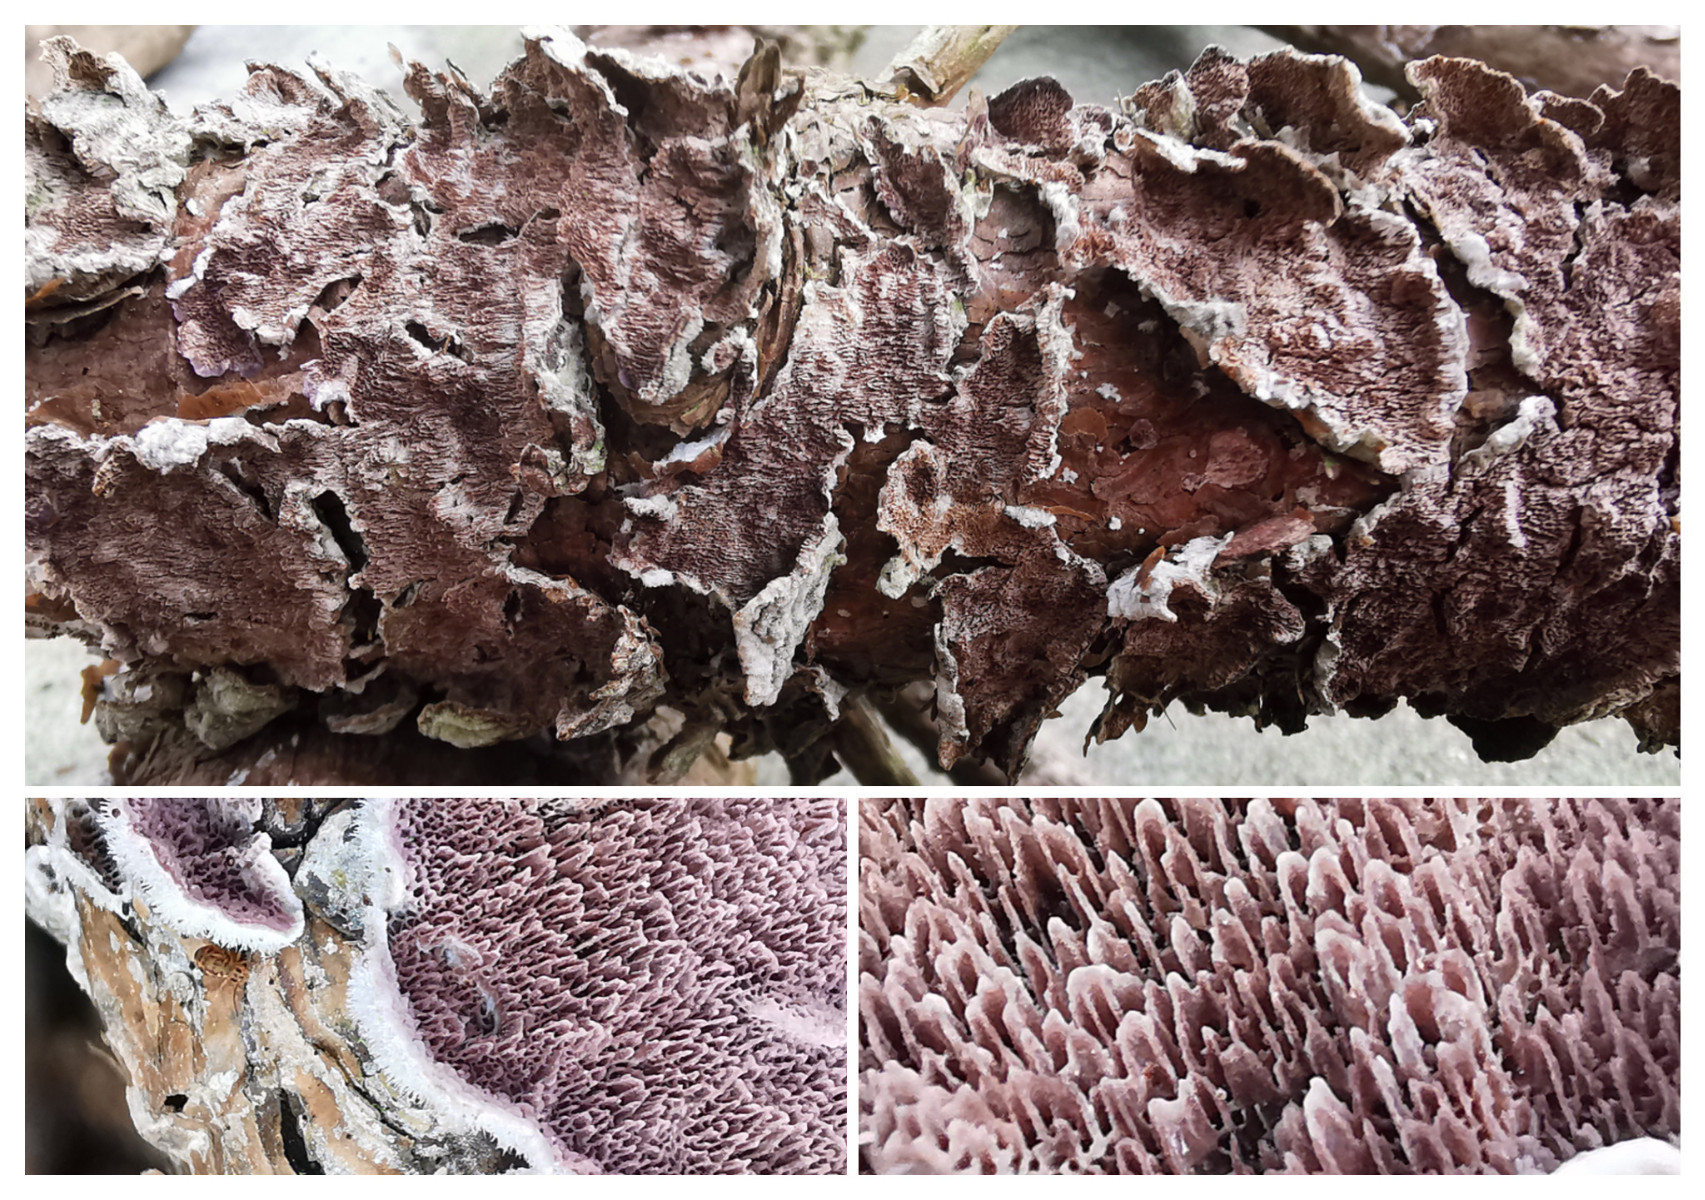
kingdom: Fungi
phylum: Basidiomycota
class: Agaricomycetes
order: Hymenochaetales
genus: Trichaptum
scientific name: Trichaptum fuscoviolaceum
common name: tandet violporesvamp
